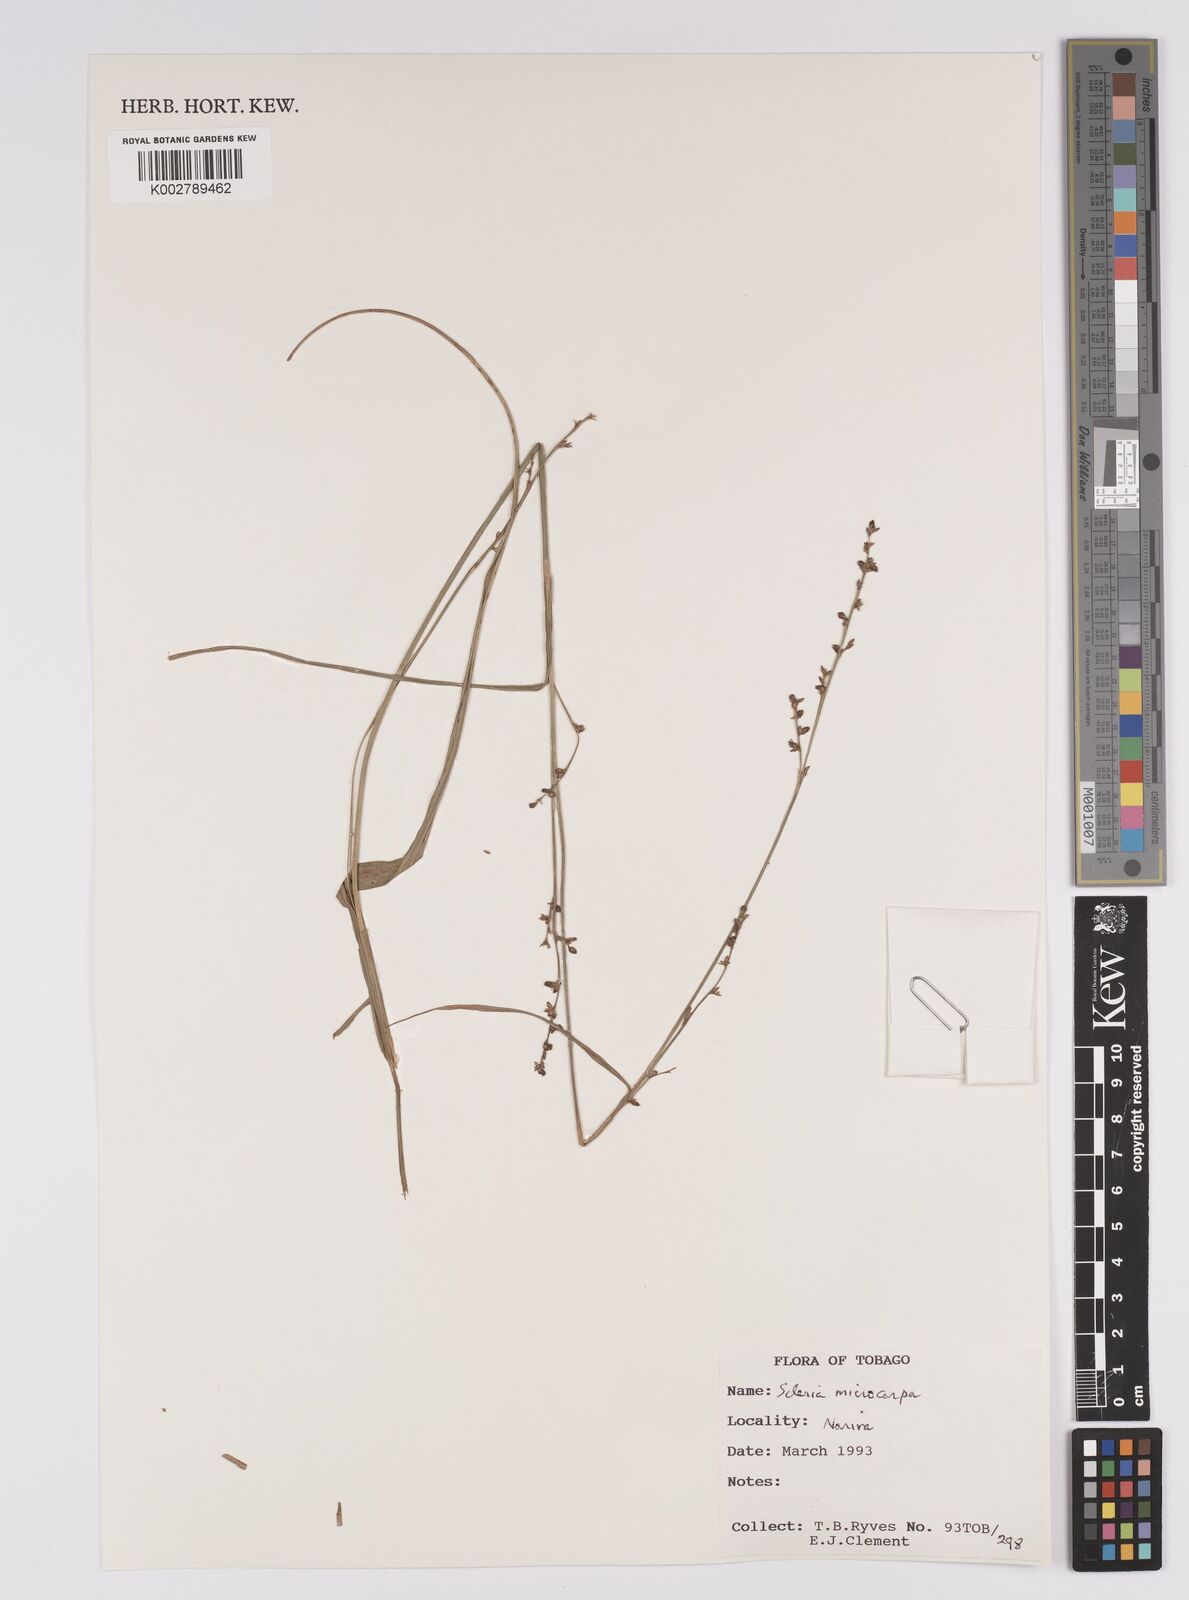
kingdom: Plantae
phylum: Tracheophyta
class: Liliopsida
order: Poales
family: Cyperaceae
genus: Scleria
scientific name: Scleria microcarpa
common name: Tropical nutrush
